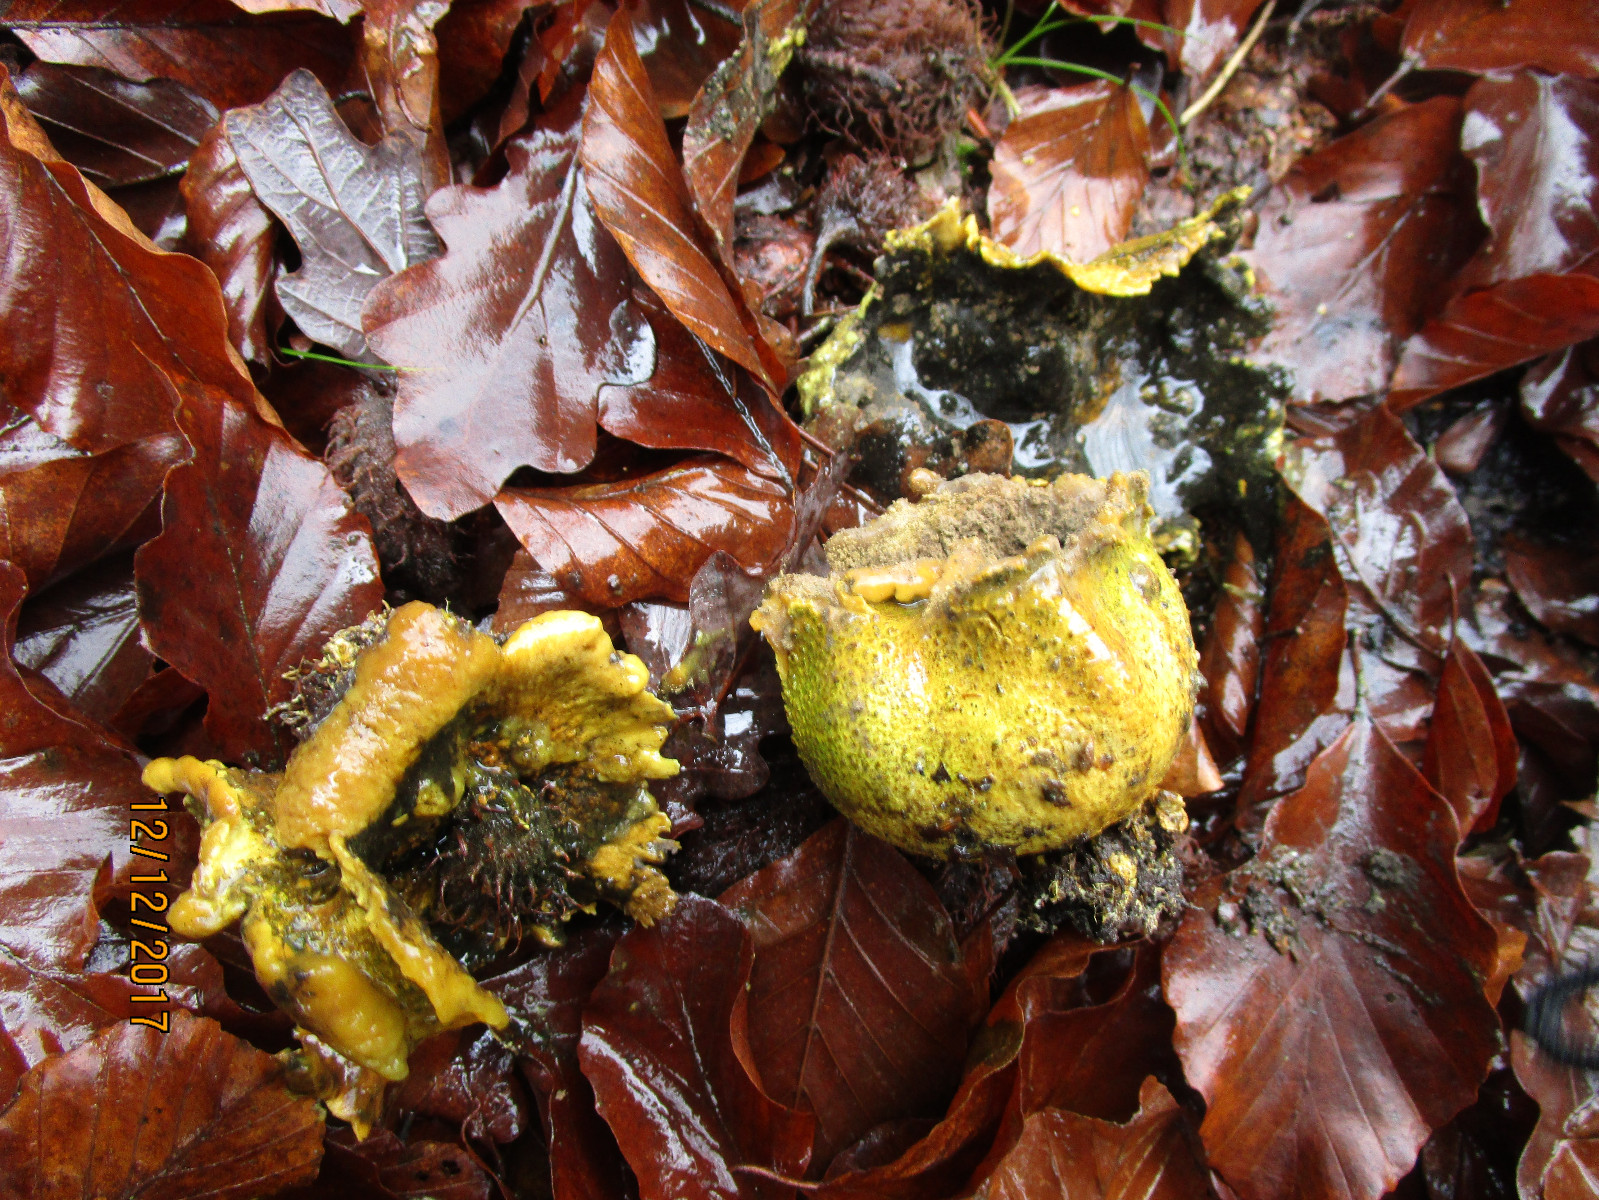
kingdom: Fungi
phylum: Basidiomycota
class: Agaricomycetes
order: Boletales
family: Sclerodermataceae
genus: Scleroderma
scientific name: Scleroderma citrinum
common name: almindelig bruskbold
